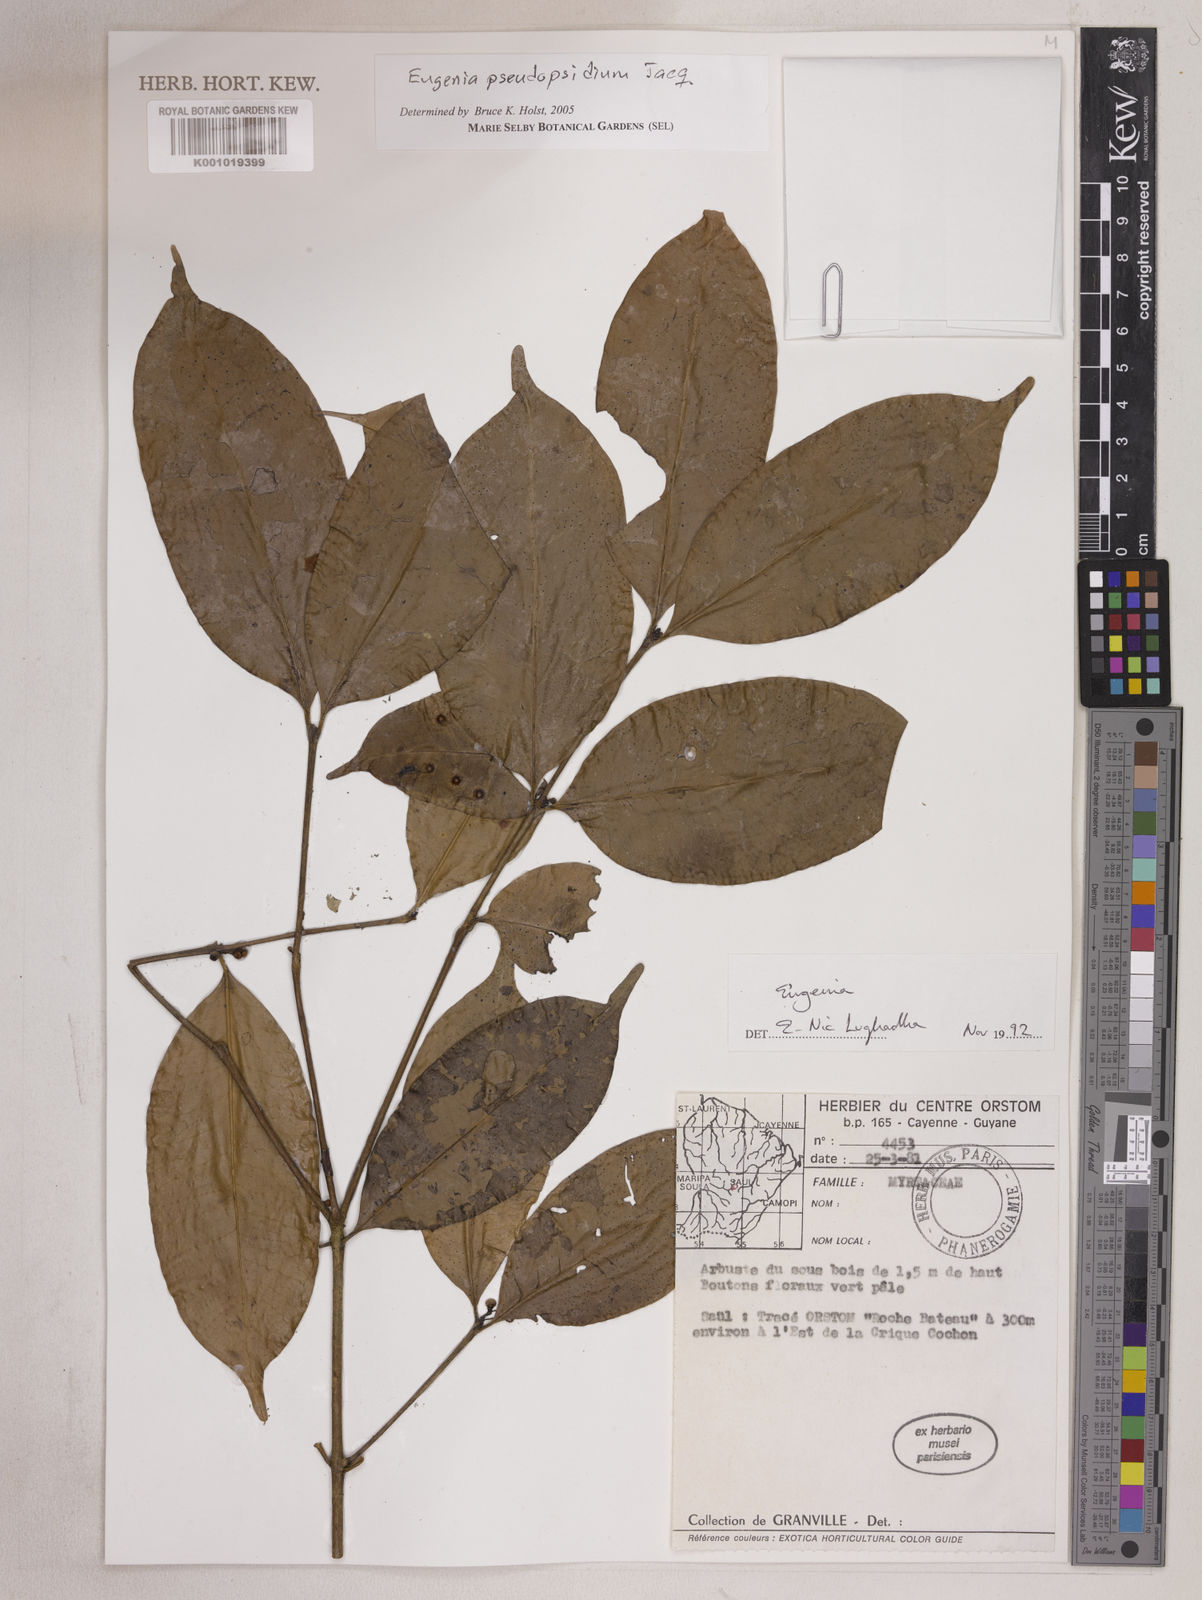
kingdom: Plantae
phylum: Tracheophyta
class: Magnoliopsida
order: Myrtales
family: Myrtaceae
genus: Eugenia
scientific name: Eugenia pseudopsidium
